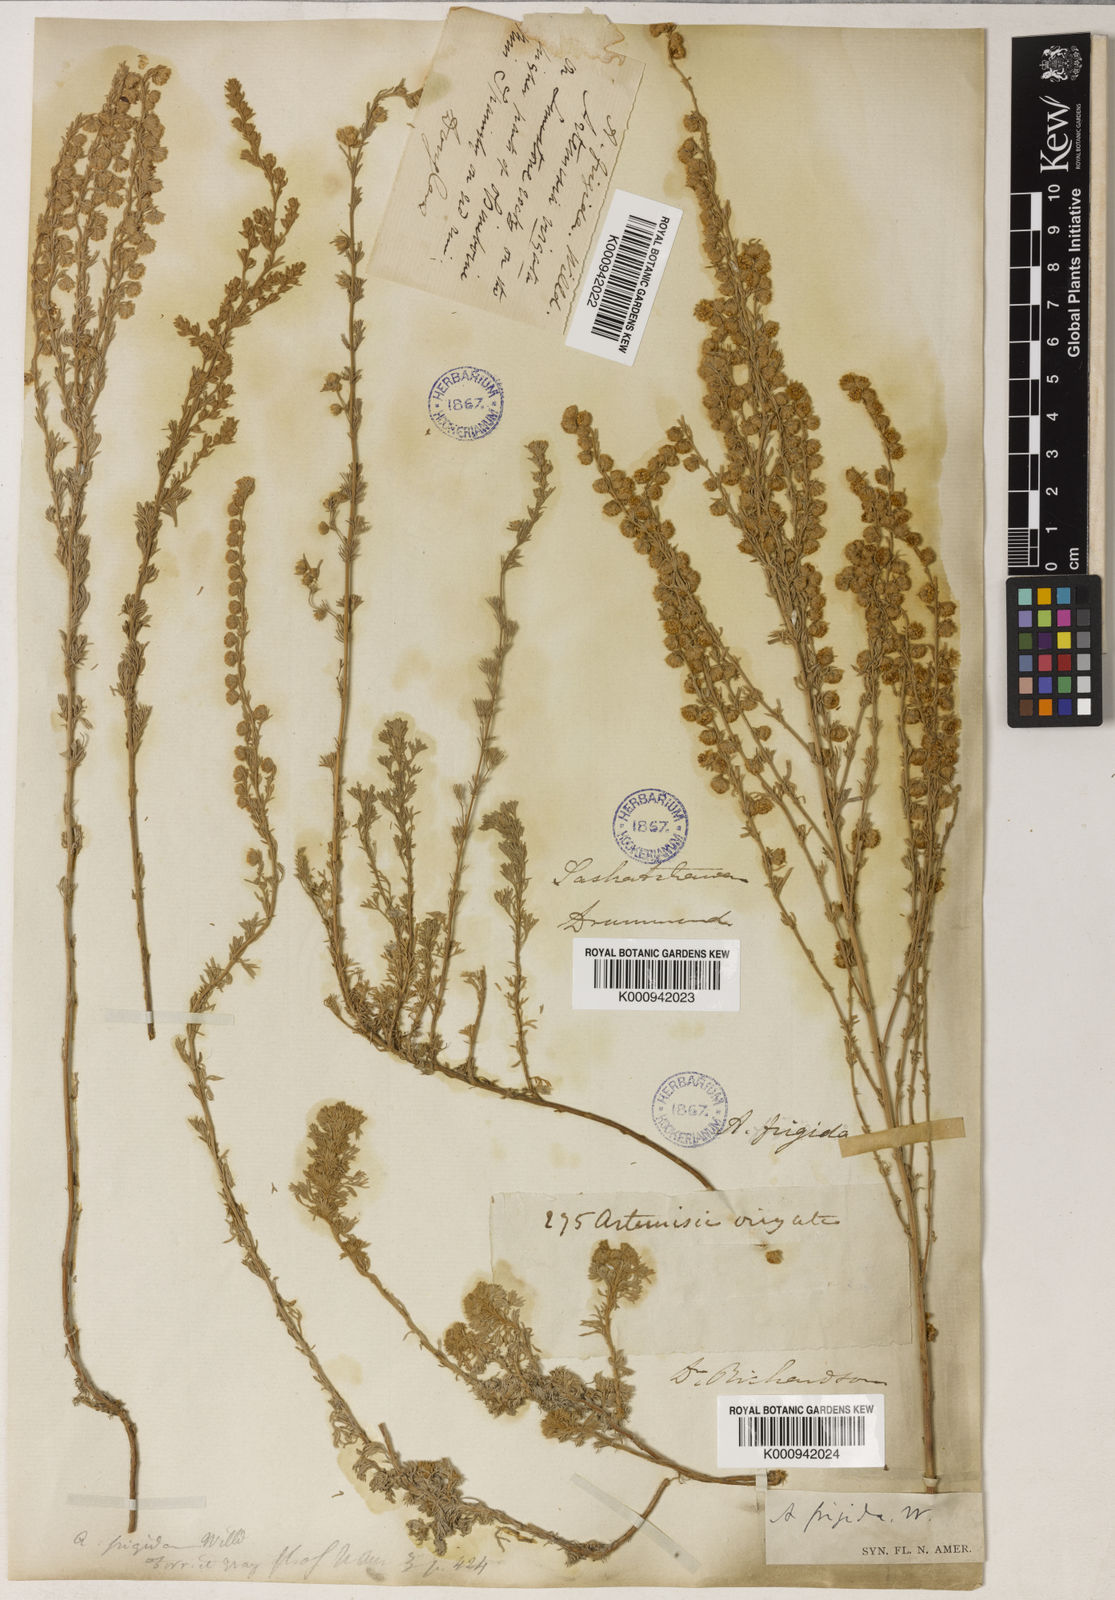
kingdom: Plantae
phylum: Tracheophyta
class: Magnoliopsida
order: Asterales
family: Asteraceae
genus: Artemisia
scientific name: Artemisia frigida
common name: Prairie sagewort
